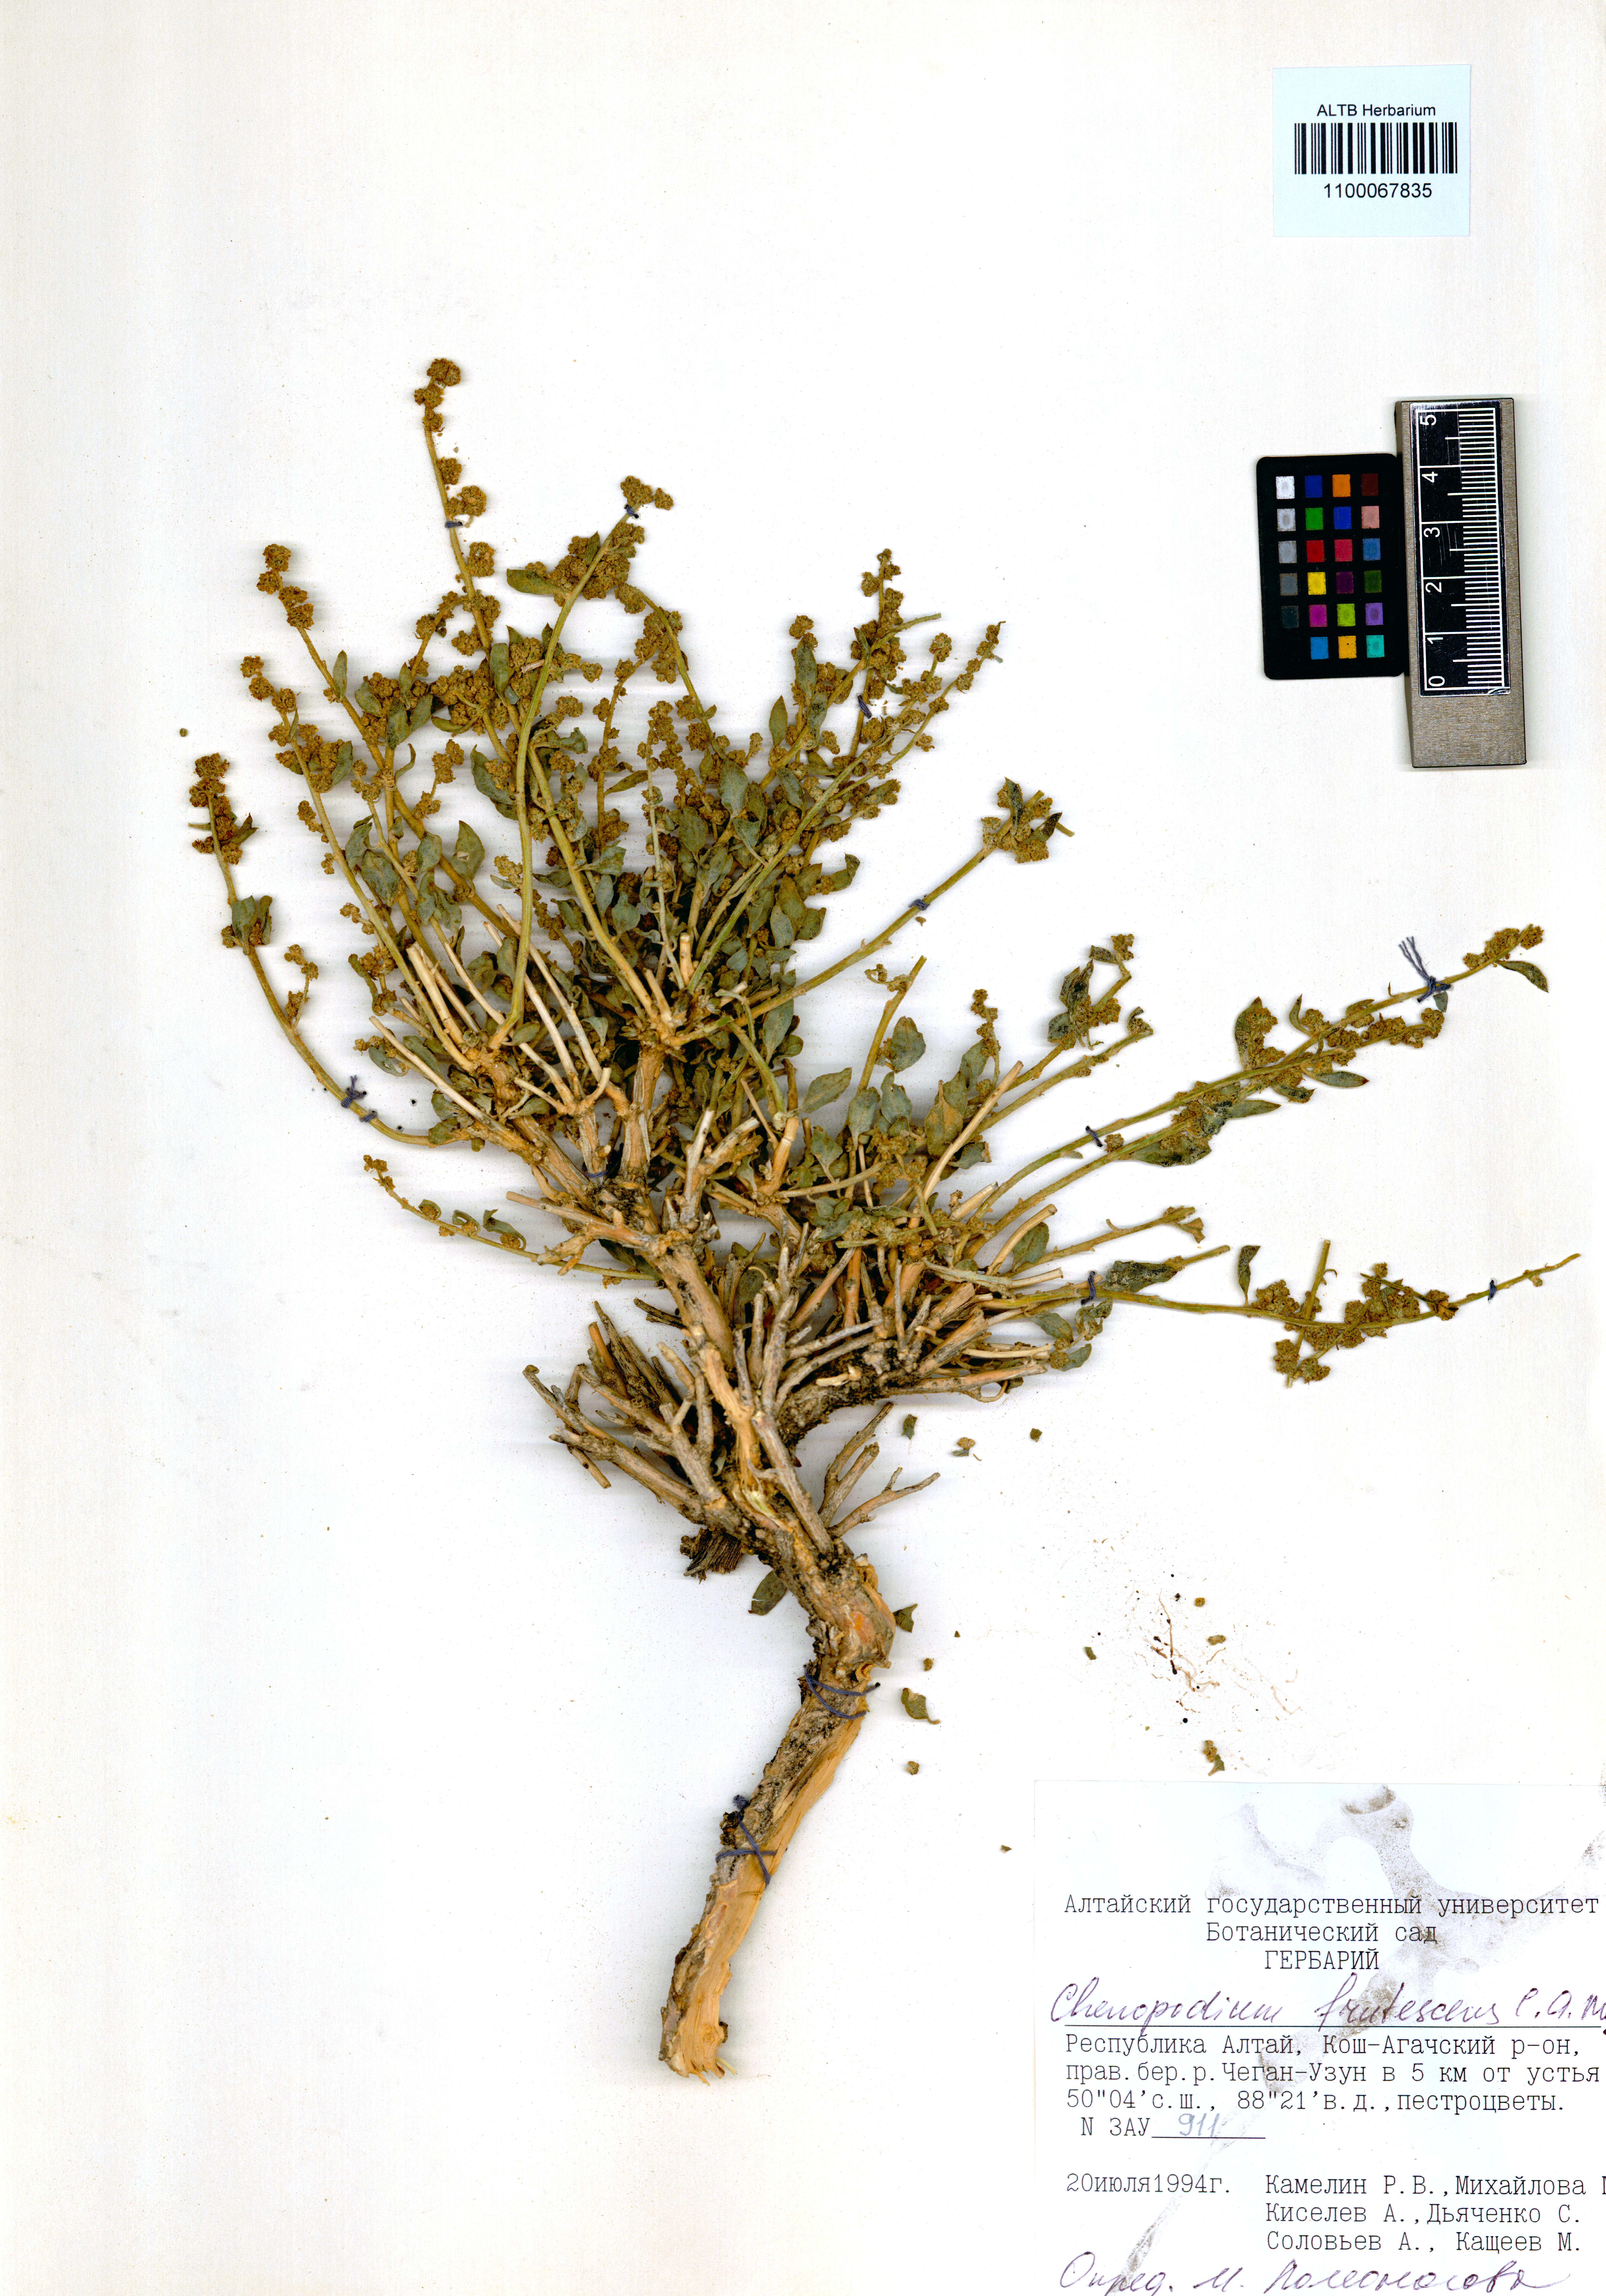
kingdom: Plantae
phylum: Tracheophyta
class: Magnoliopsida
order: Caryophyllales
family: Amaranthaceae
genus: Chenopodium
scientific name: Chenopodium frutescens
